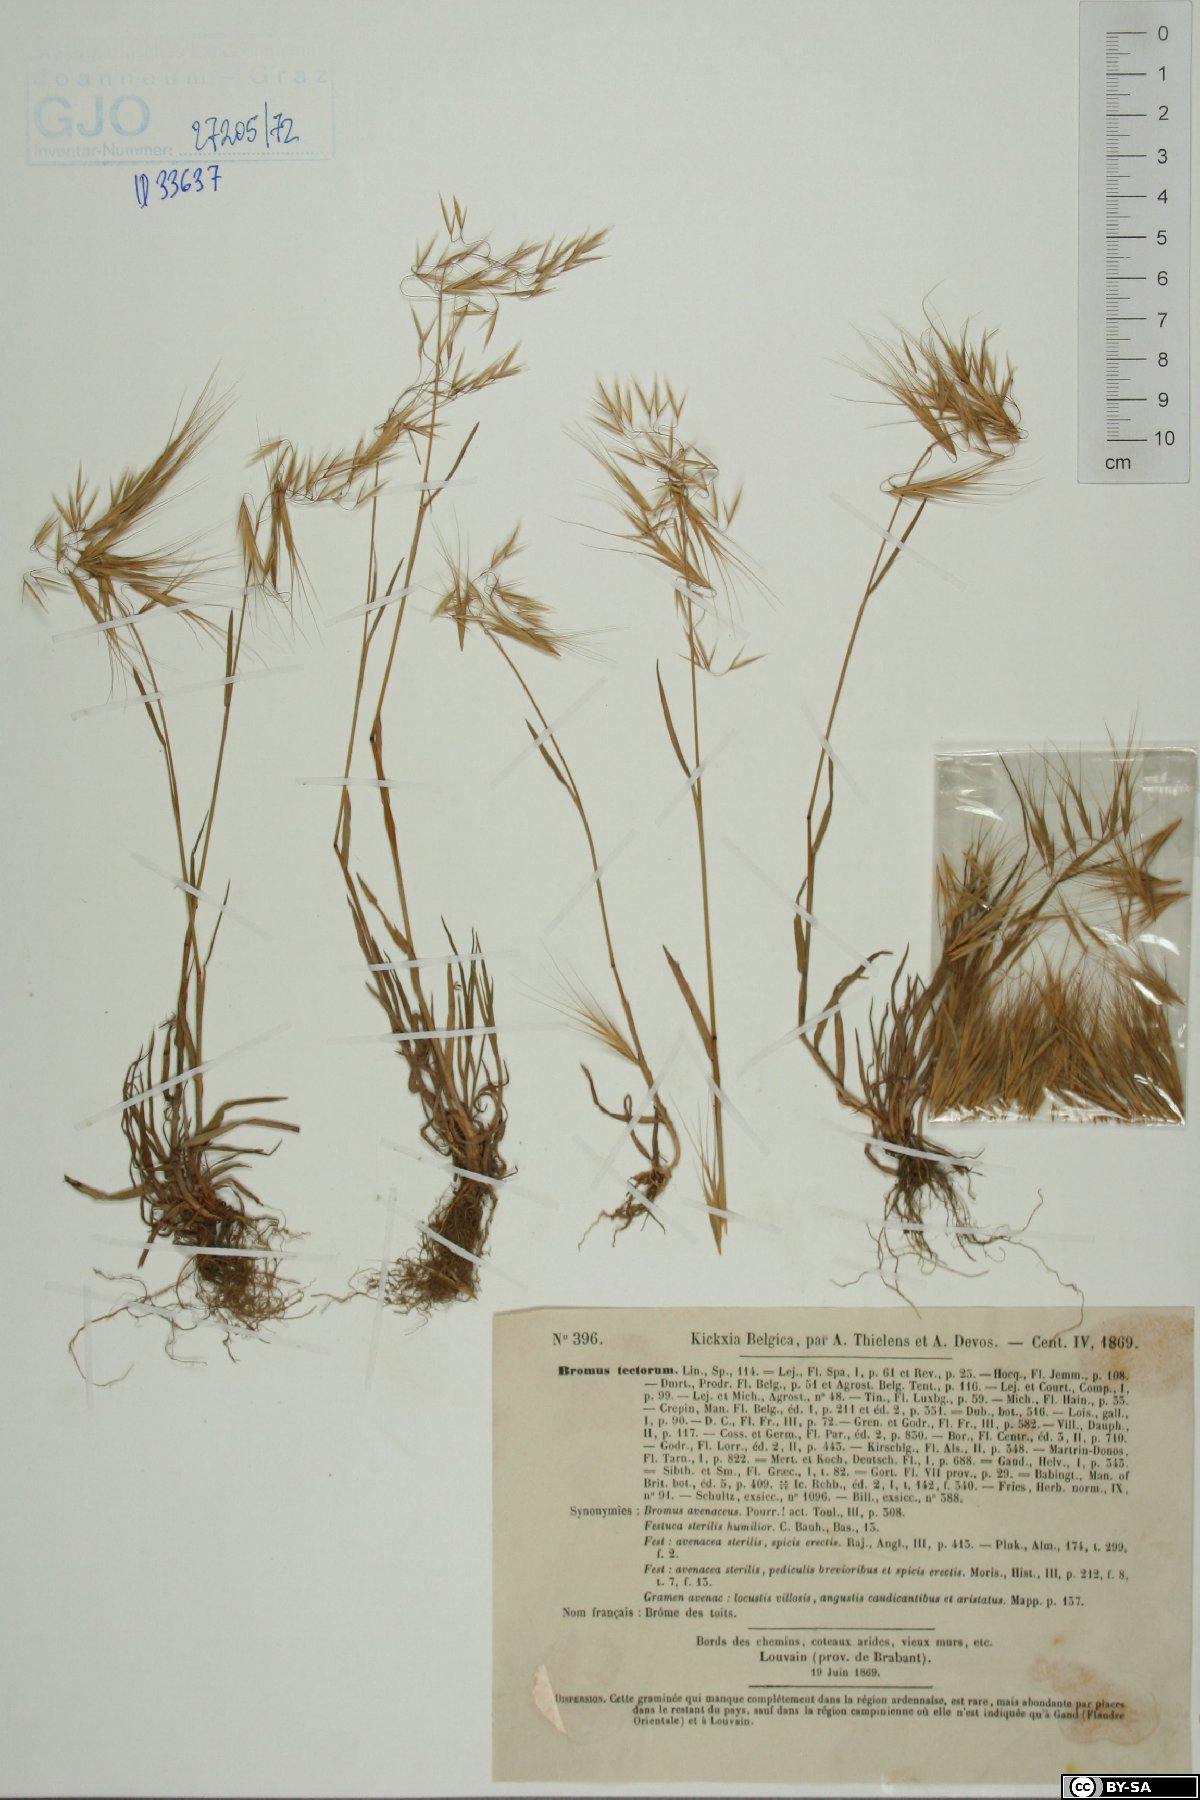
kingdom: Plantae
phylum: Tracheophyta
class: Liliopsida
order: Poales
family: Poaceae
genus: Bromus
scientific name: Bromus tectorum
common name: Cheatgrass
